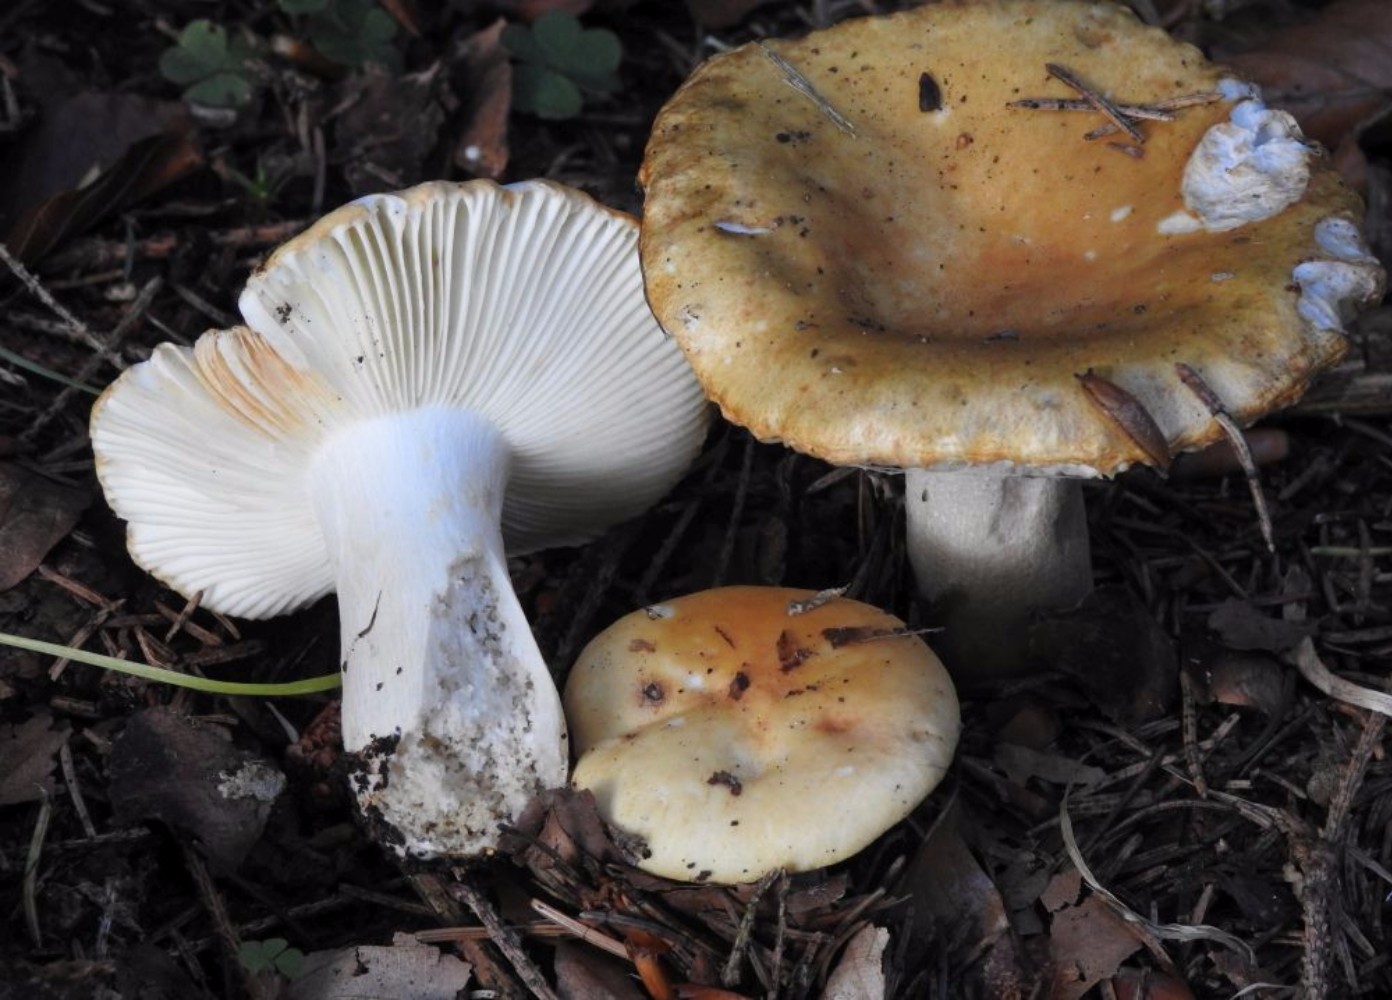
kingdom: Fungi
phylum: Basidiomycota
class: Agaricomycetes
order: Russulales
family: Russulaceae
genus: Russula
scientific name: Russula ochroleuca
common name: okkergul skørhat
